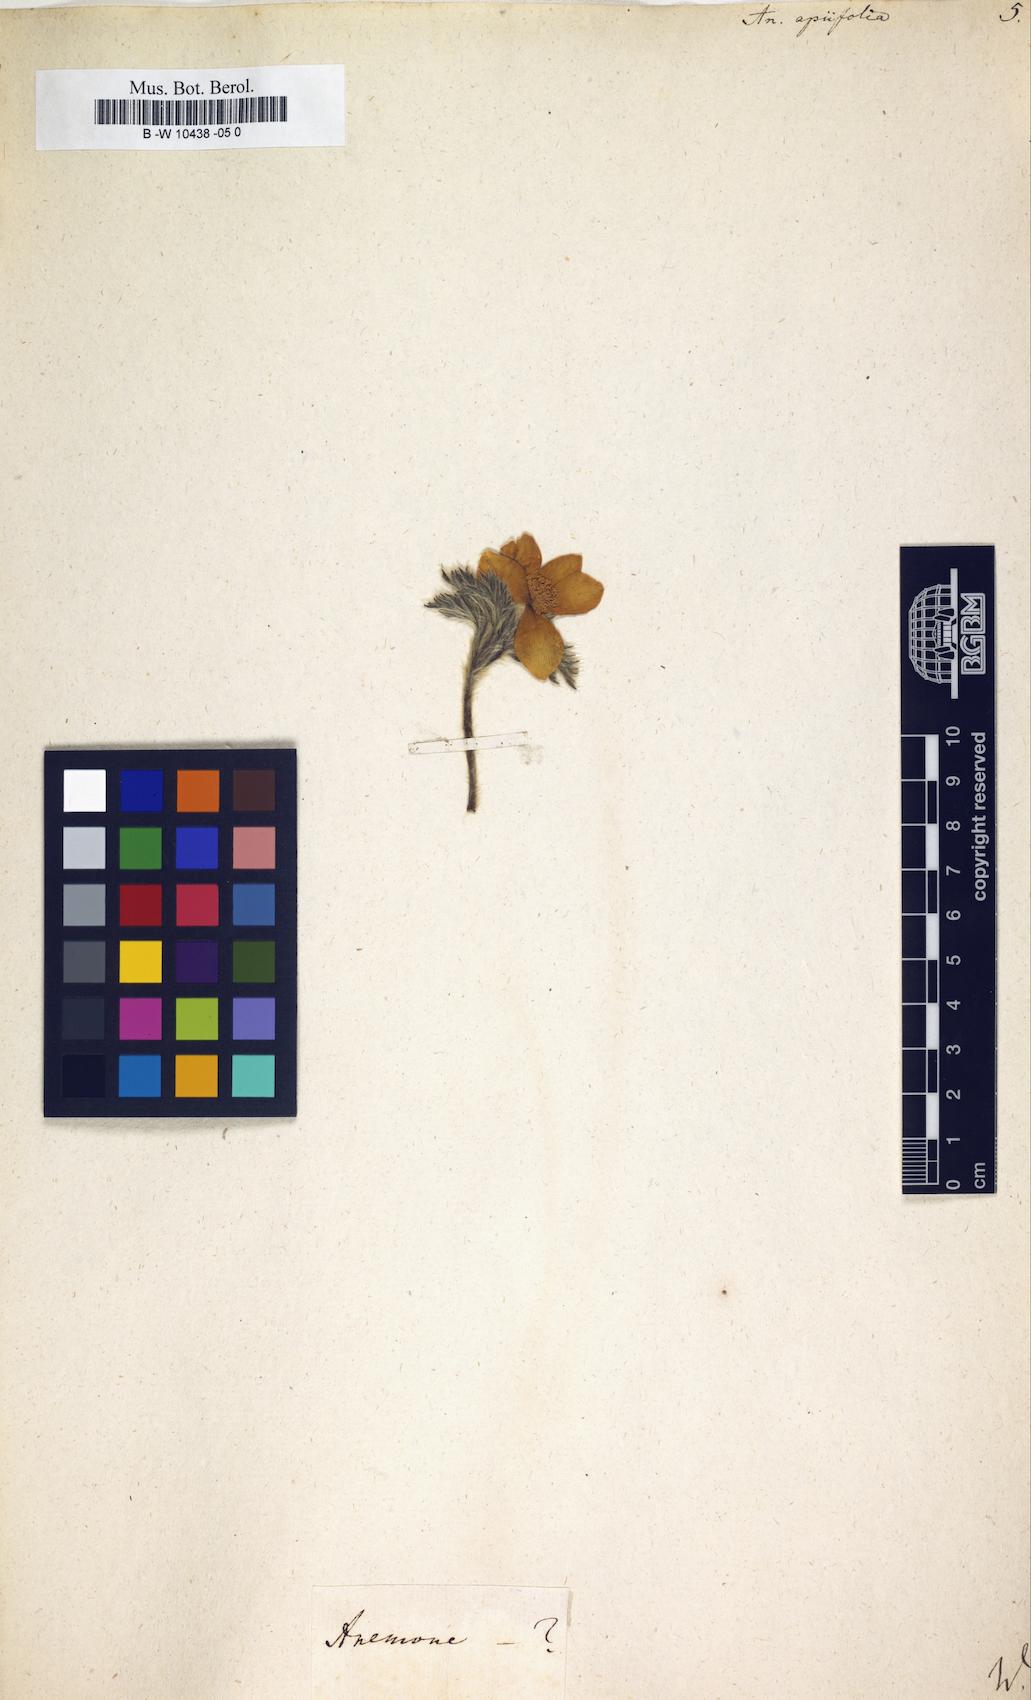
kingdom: Plantae
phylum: Tracheophyta
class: Magnoliopsida
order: Ranunculales
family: Ranunculaceae
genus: Pulsatilla
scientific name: Pulsatilla alpina
